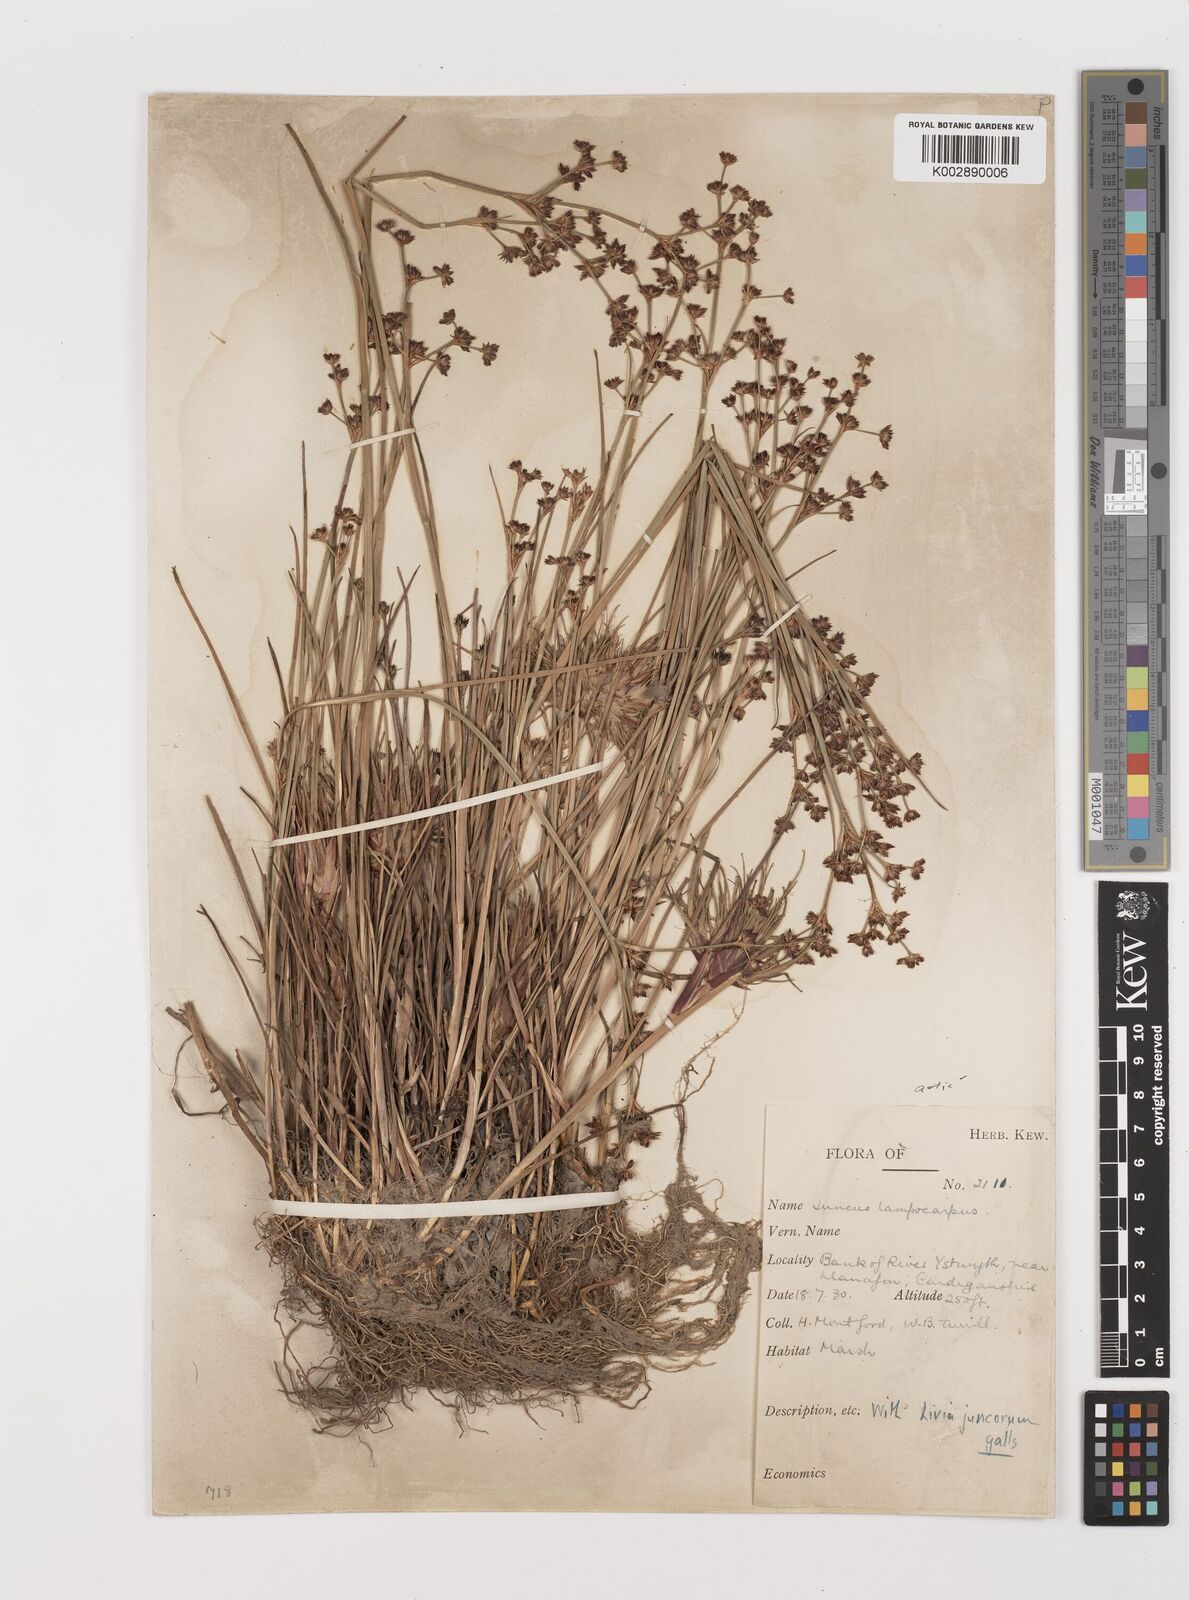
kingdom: Plantae
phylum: Tracheophyta
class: Liliopsida
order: Poales
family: Juncaceae
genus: Juncus
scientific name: Juncus articulatus
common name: Jointed rush
